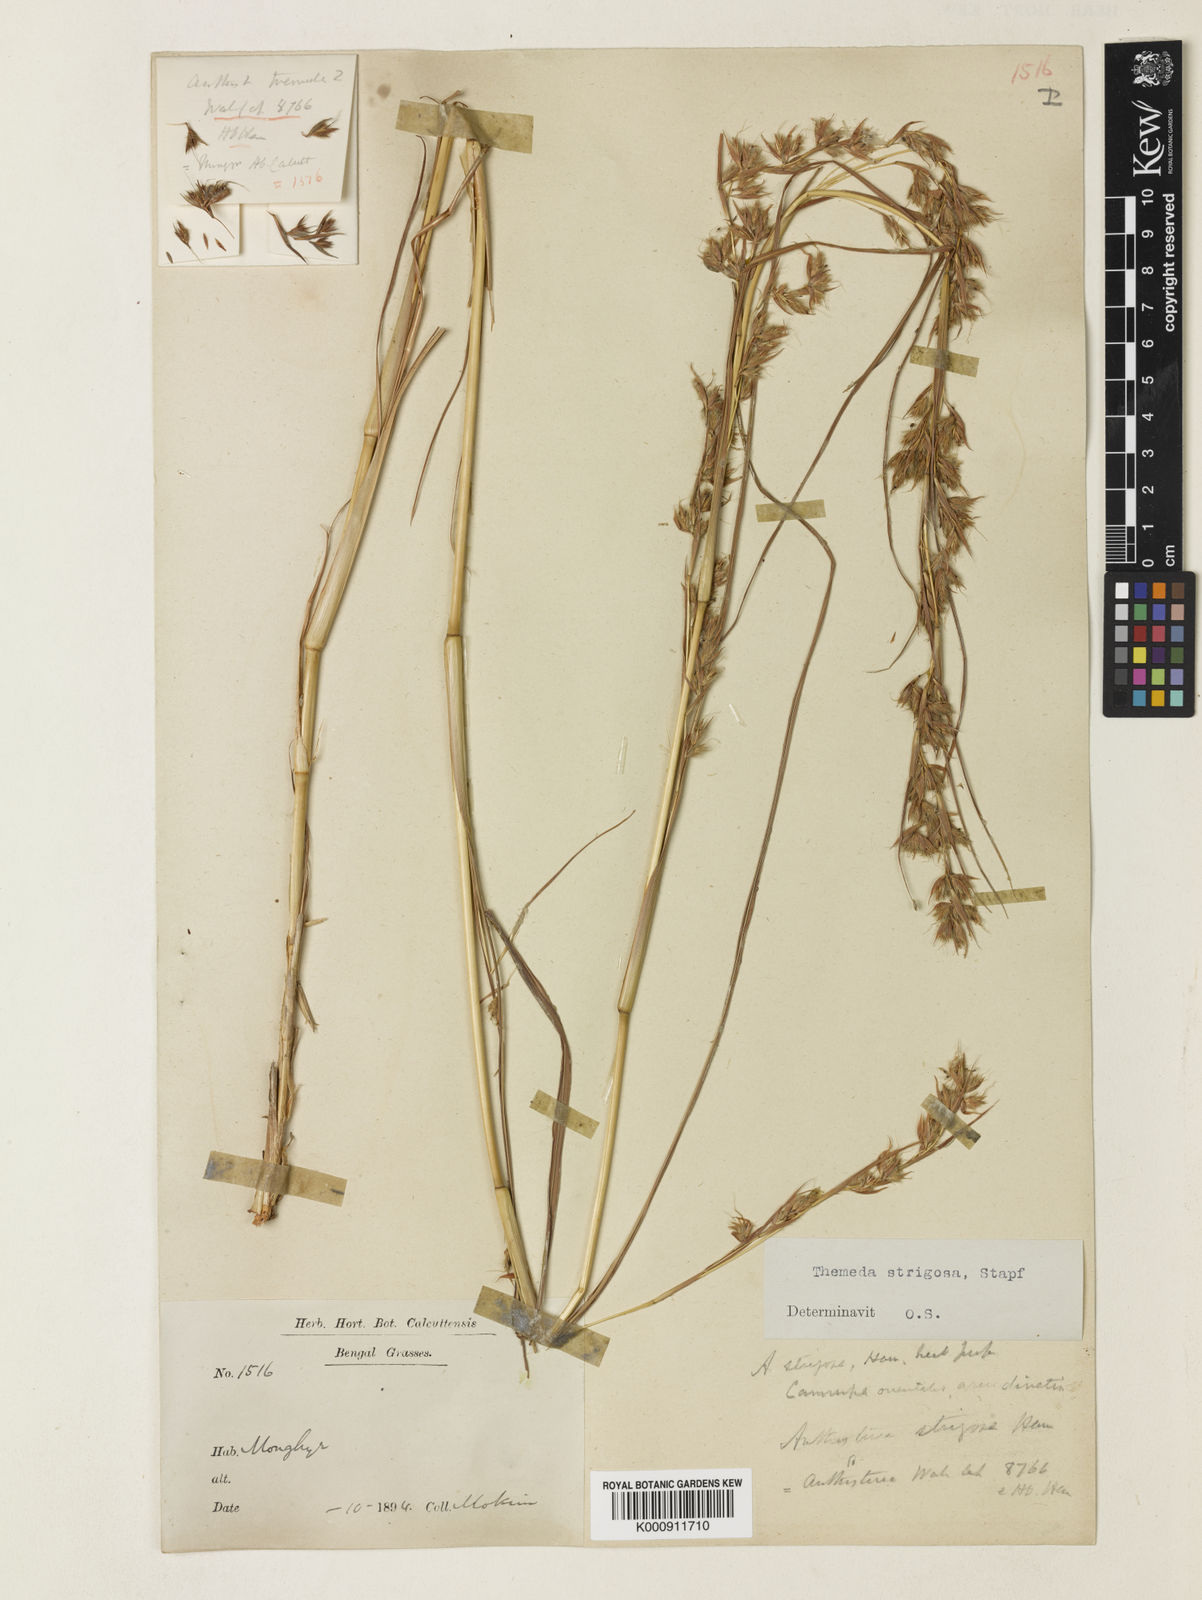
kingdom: Plantae
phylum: Tracheophyta
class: Liliopsida
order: Poales
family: Poaceae
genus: Themeda
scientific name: Themeda
